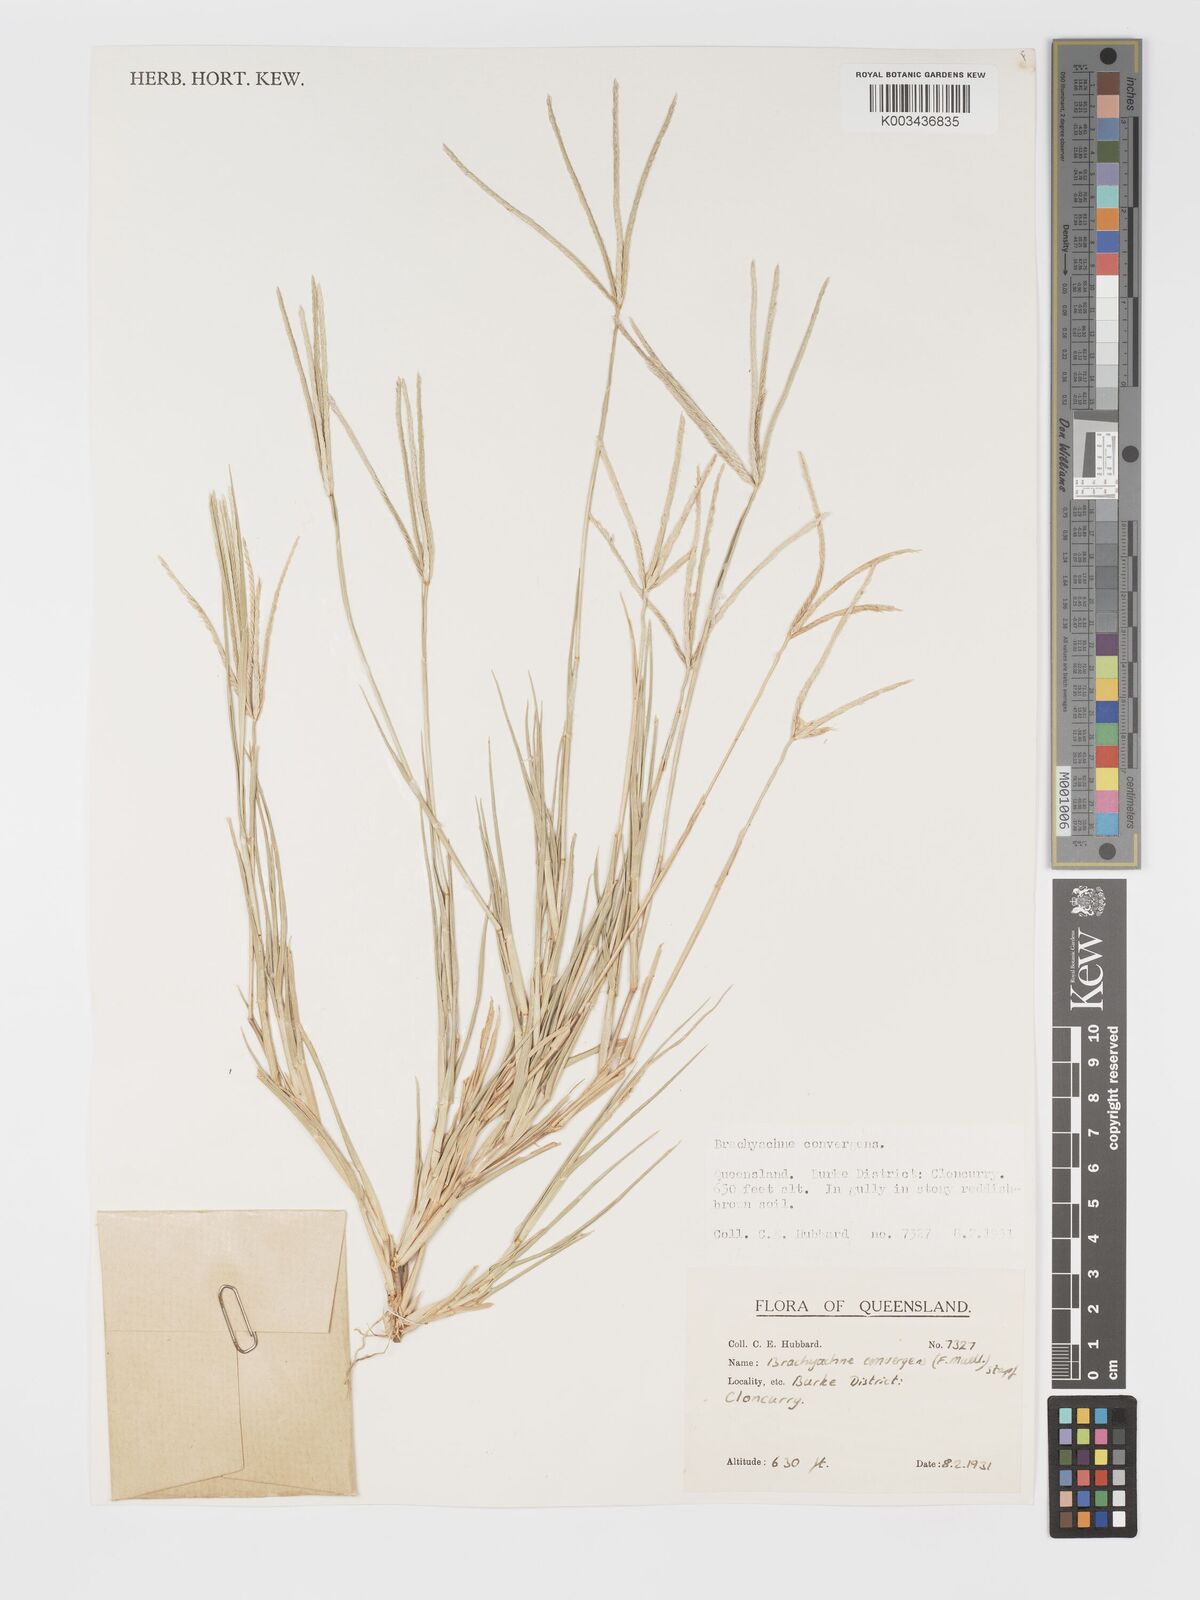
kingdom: Plantae
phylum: Tracheophyta
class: Liliopsida
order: Poales
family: Poaceae
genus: Cynodon
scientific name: Cynodon convergens
